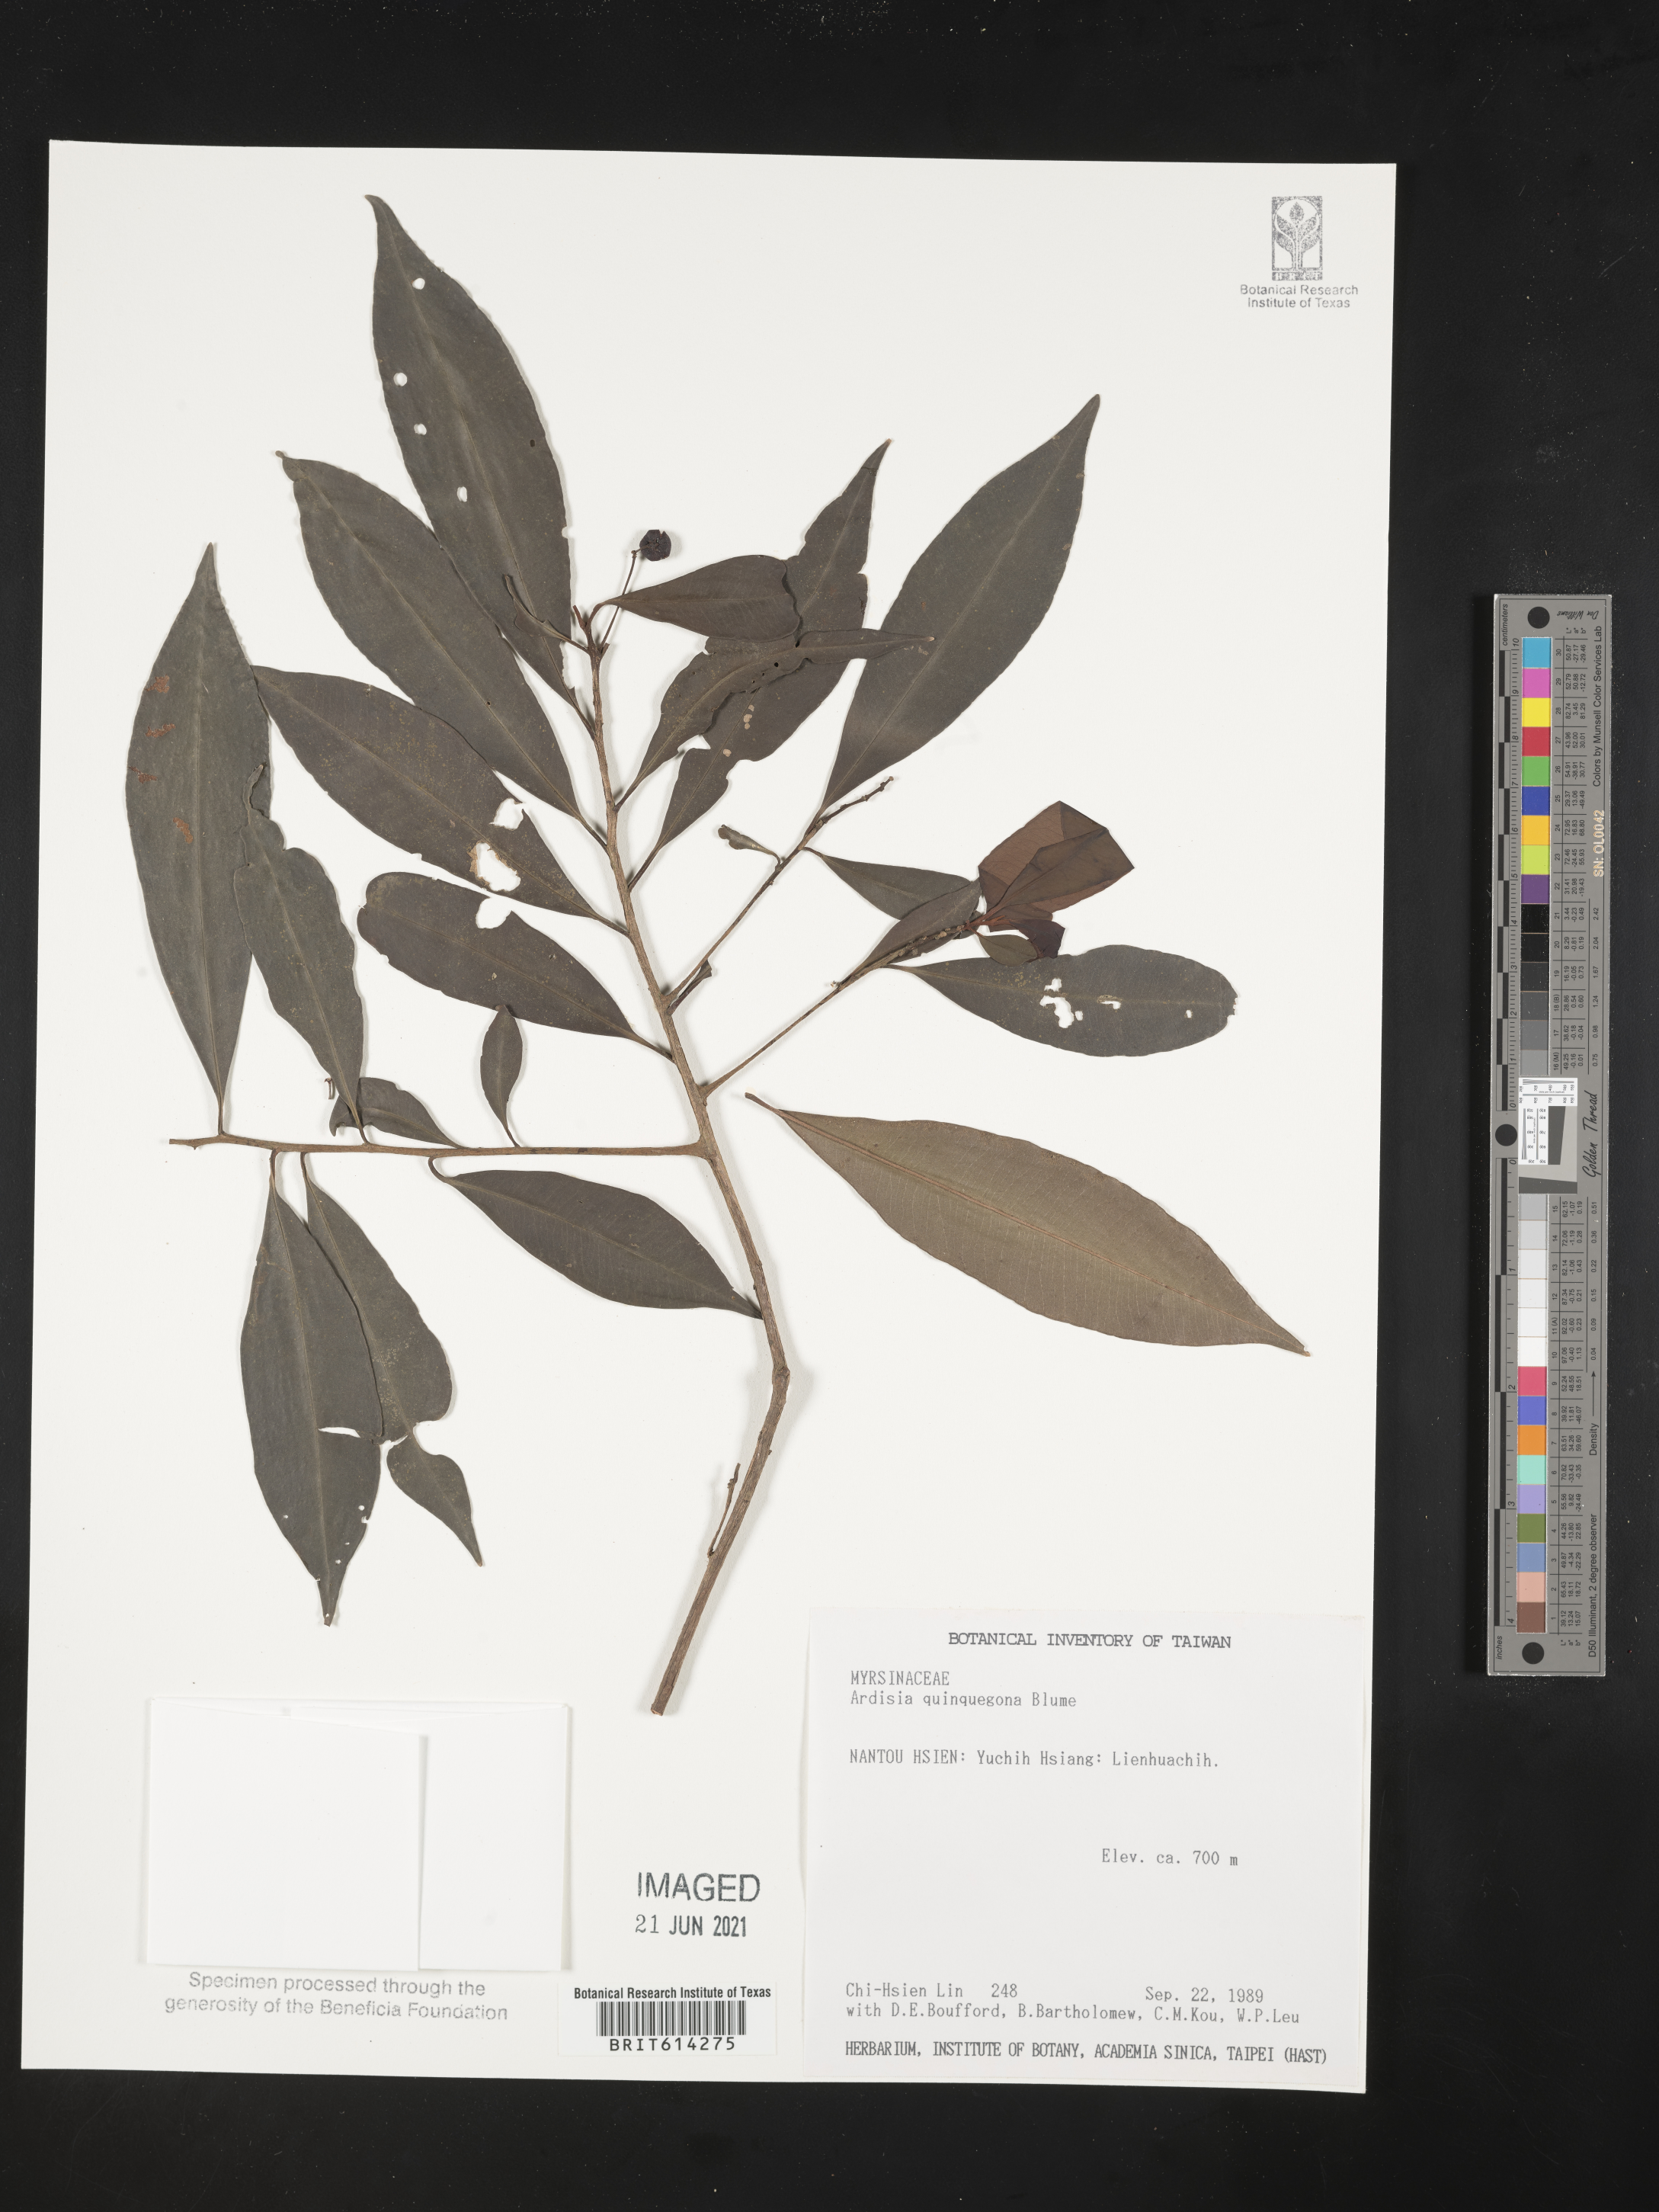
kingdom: Plantae
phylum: Tracheophyta
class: Magnoliopsida
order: Ericales
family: Primulaceae
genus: Ardisia
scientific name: Ardisia quinquegona
